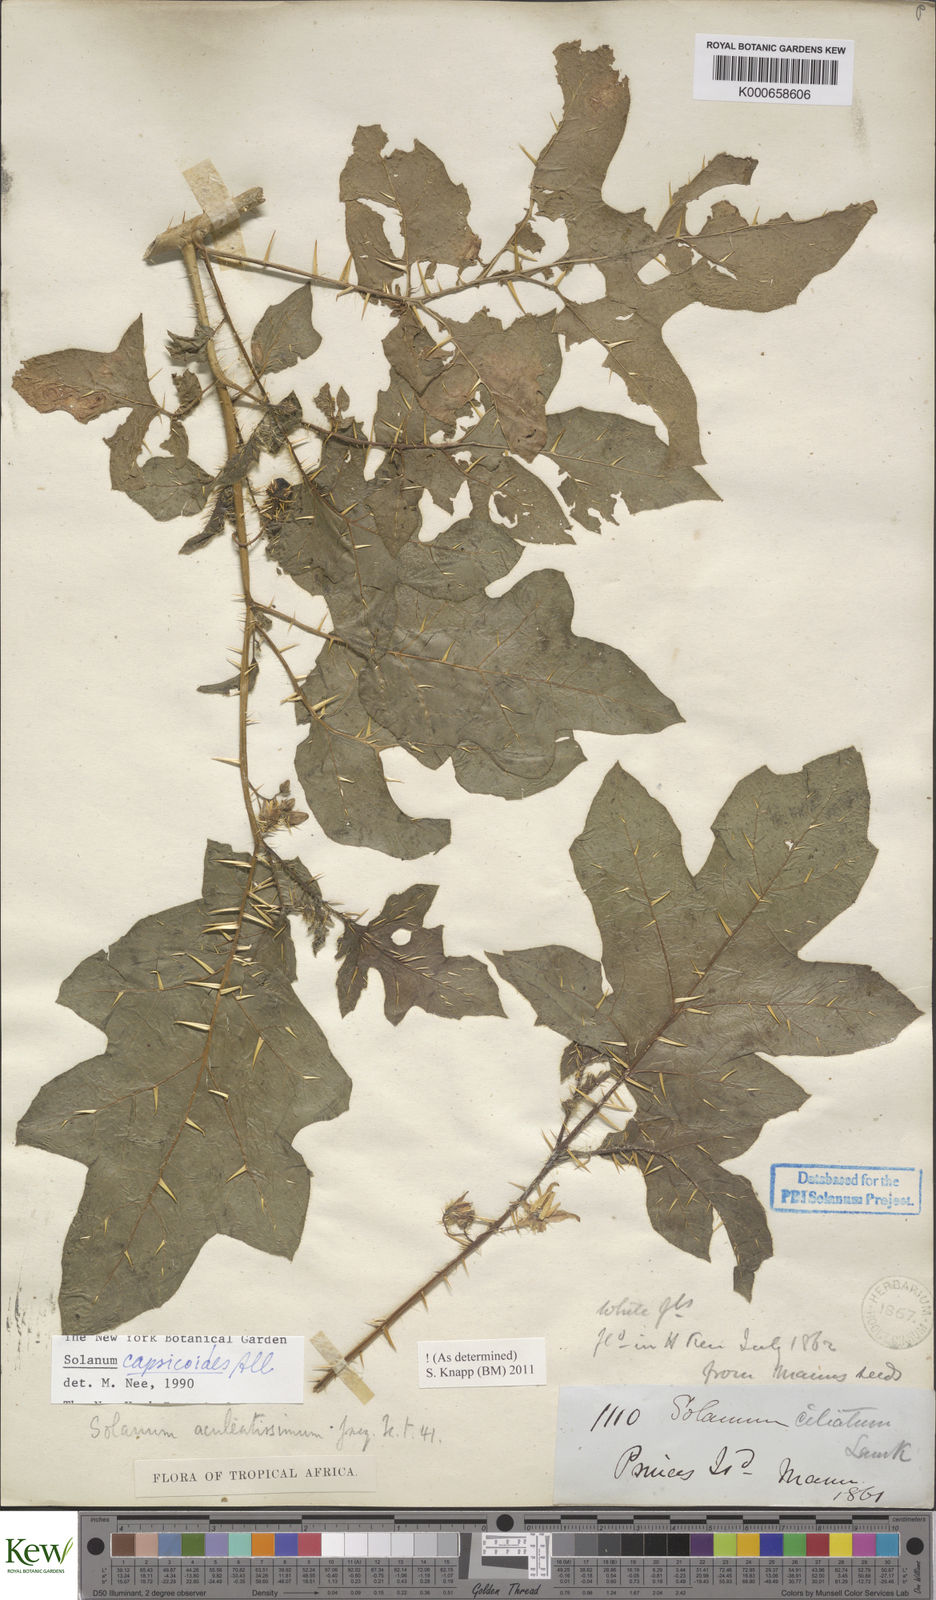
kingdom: Plantae
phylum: Tracheophyta
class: Magnoliopsida
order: Solanales
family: Solanaceae
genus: Solanum
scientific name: Solanum capsicoides
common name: Cockroach berry
